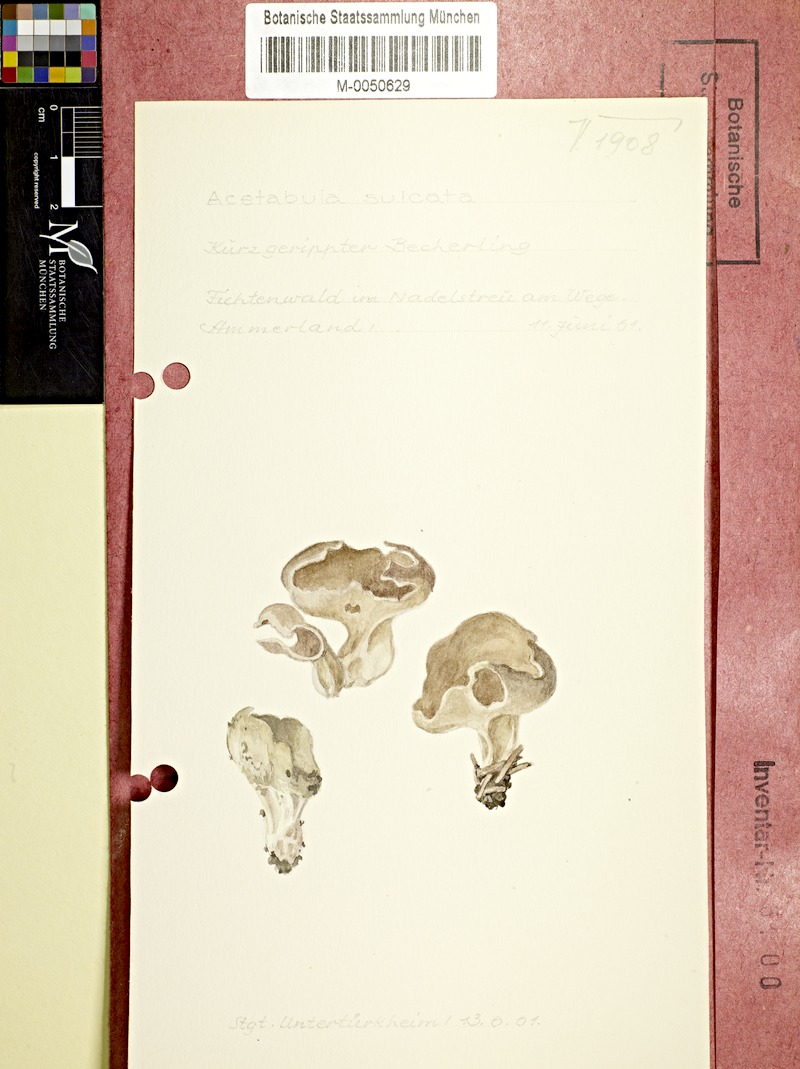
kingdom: Fungi
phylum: Ascomycota
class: Pezizomycetes
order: Pezizales
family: Helvellaceae
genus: Helvella
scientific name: Helvella
